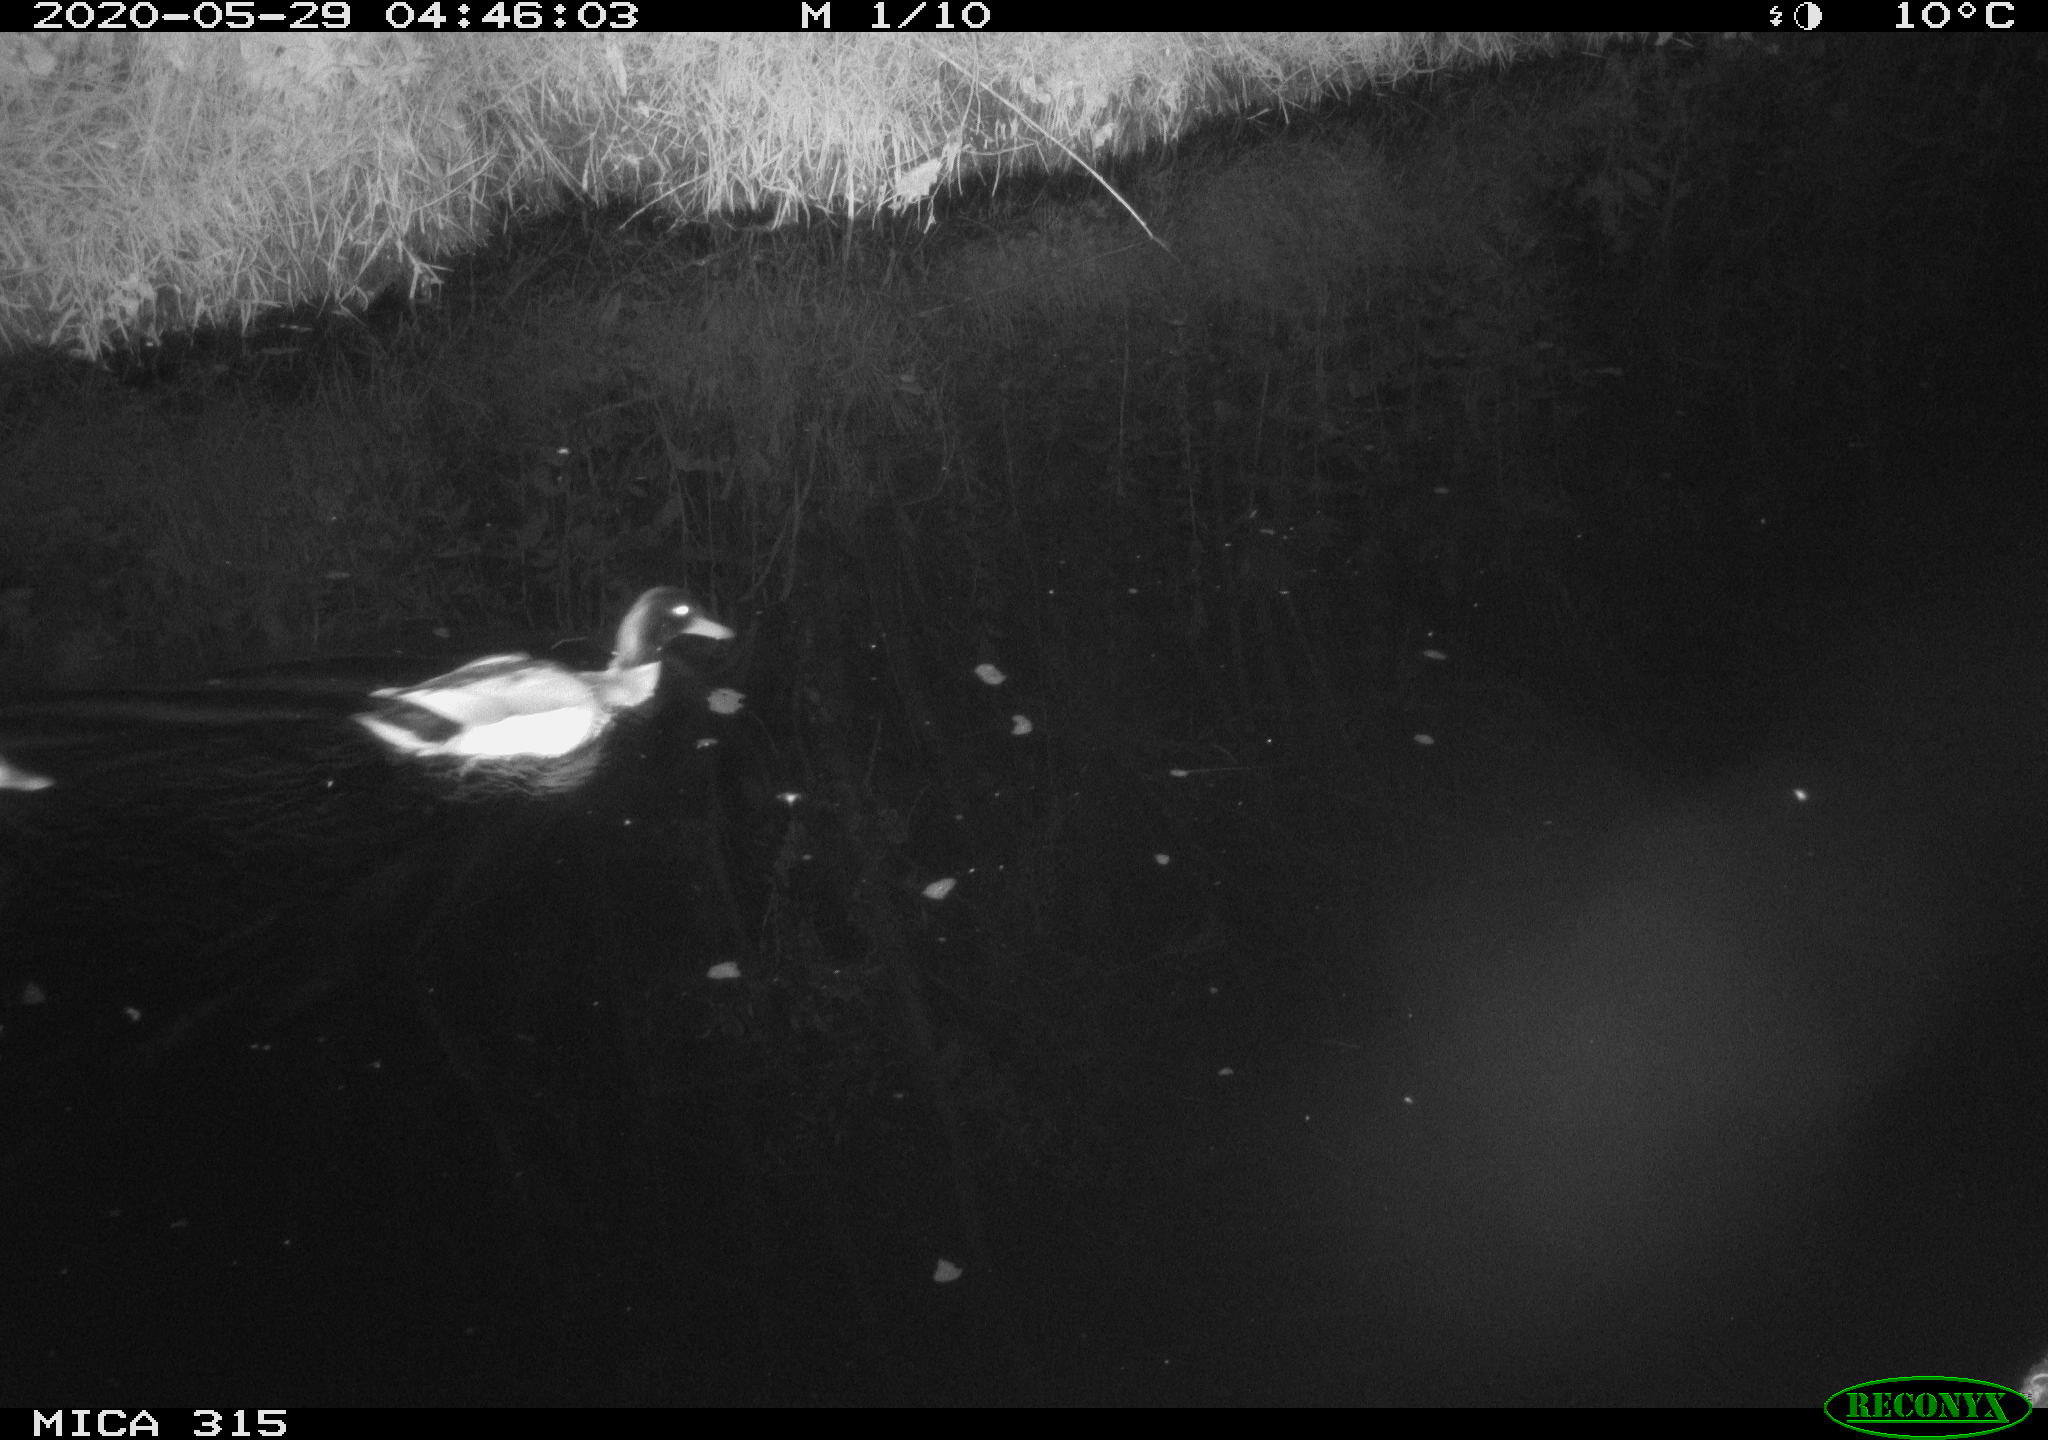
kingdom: Animalia
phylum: Chordata
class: Aves
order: Anseriformes
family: Anatidae
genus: Anas
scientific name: Anas platyrhynchos
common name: Mallard
